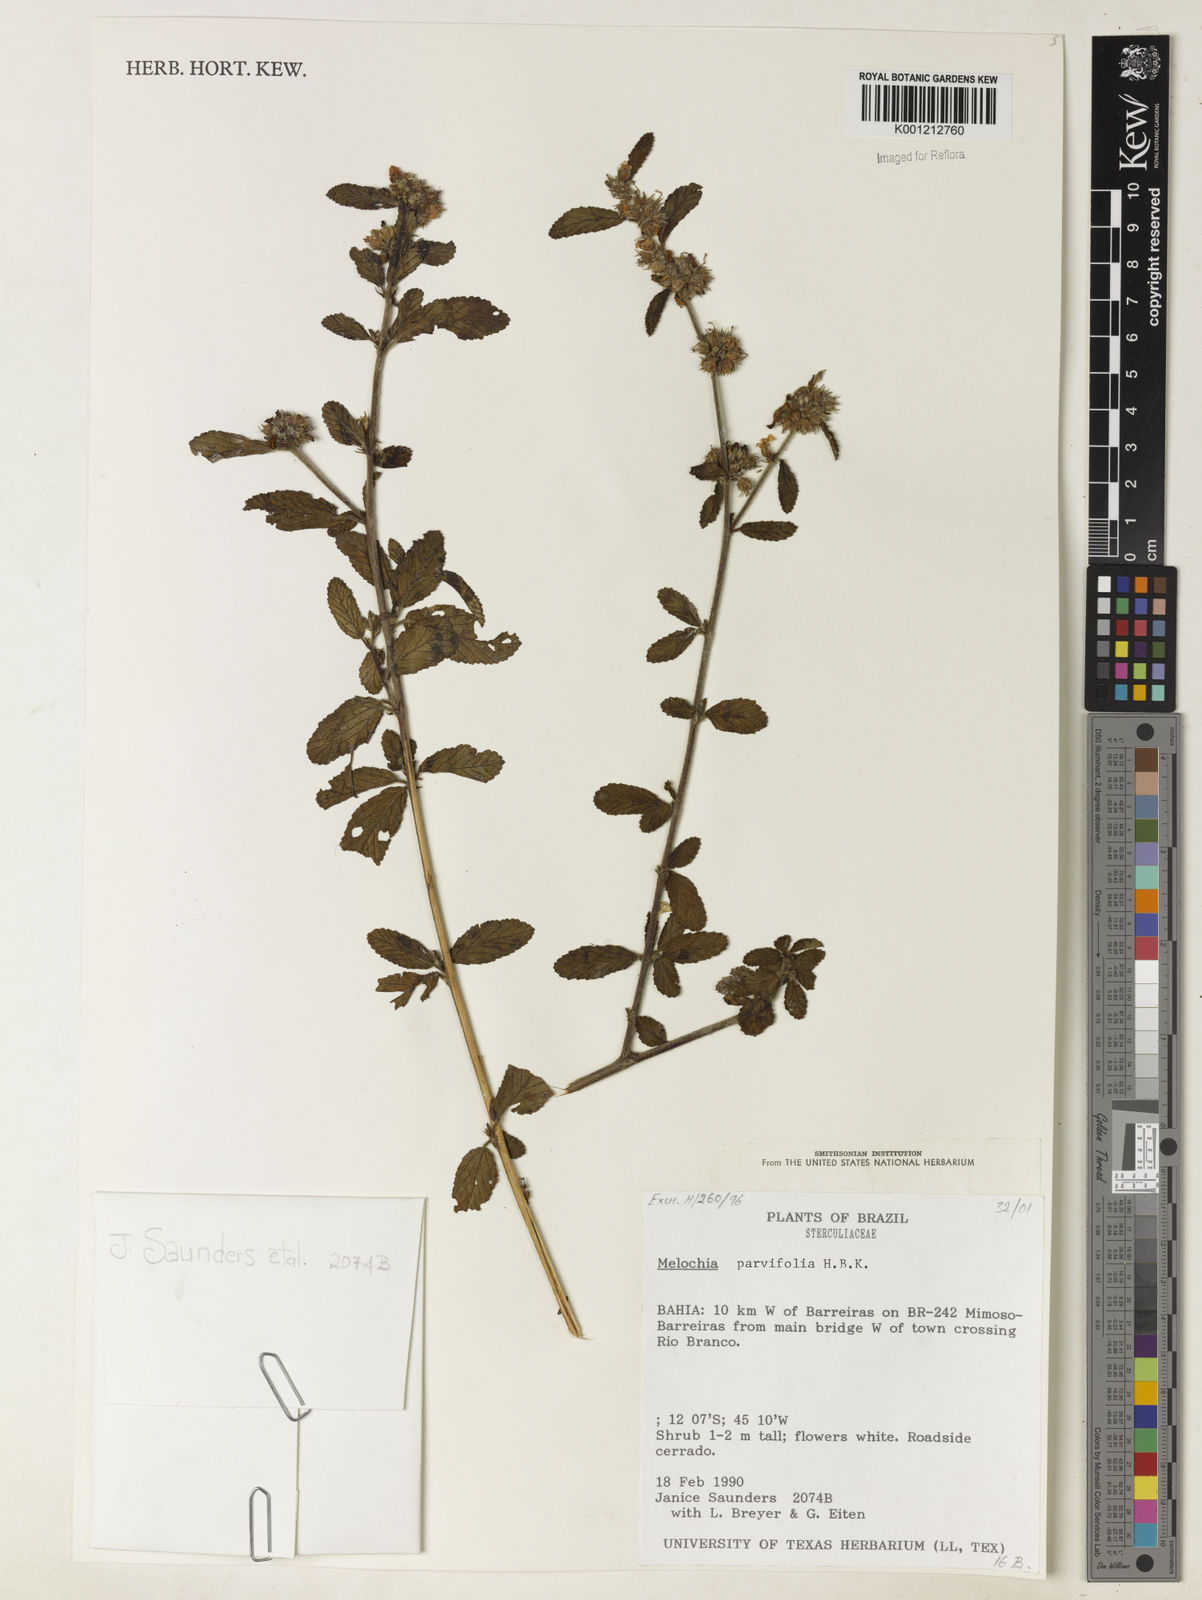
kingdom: Plantae
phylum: Tracheophyta
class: Magnoliopsida
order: Malvales
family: Malvaceae
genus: Melochia
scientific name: Melochia parvifolia
